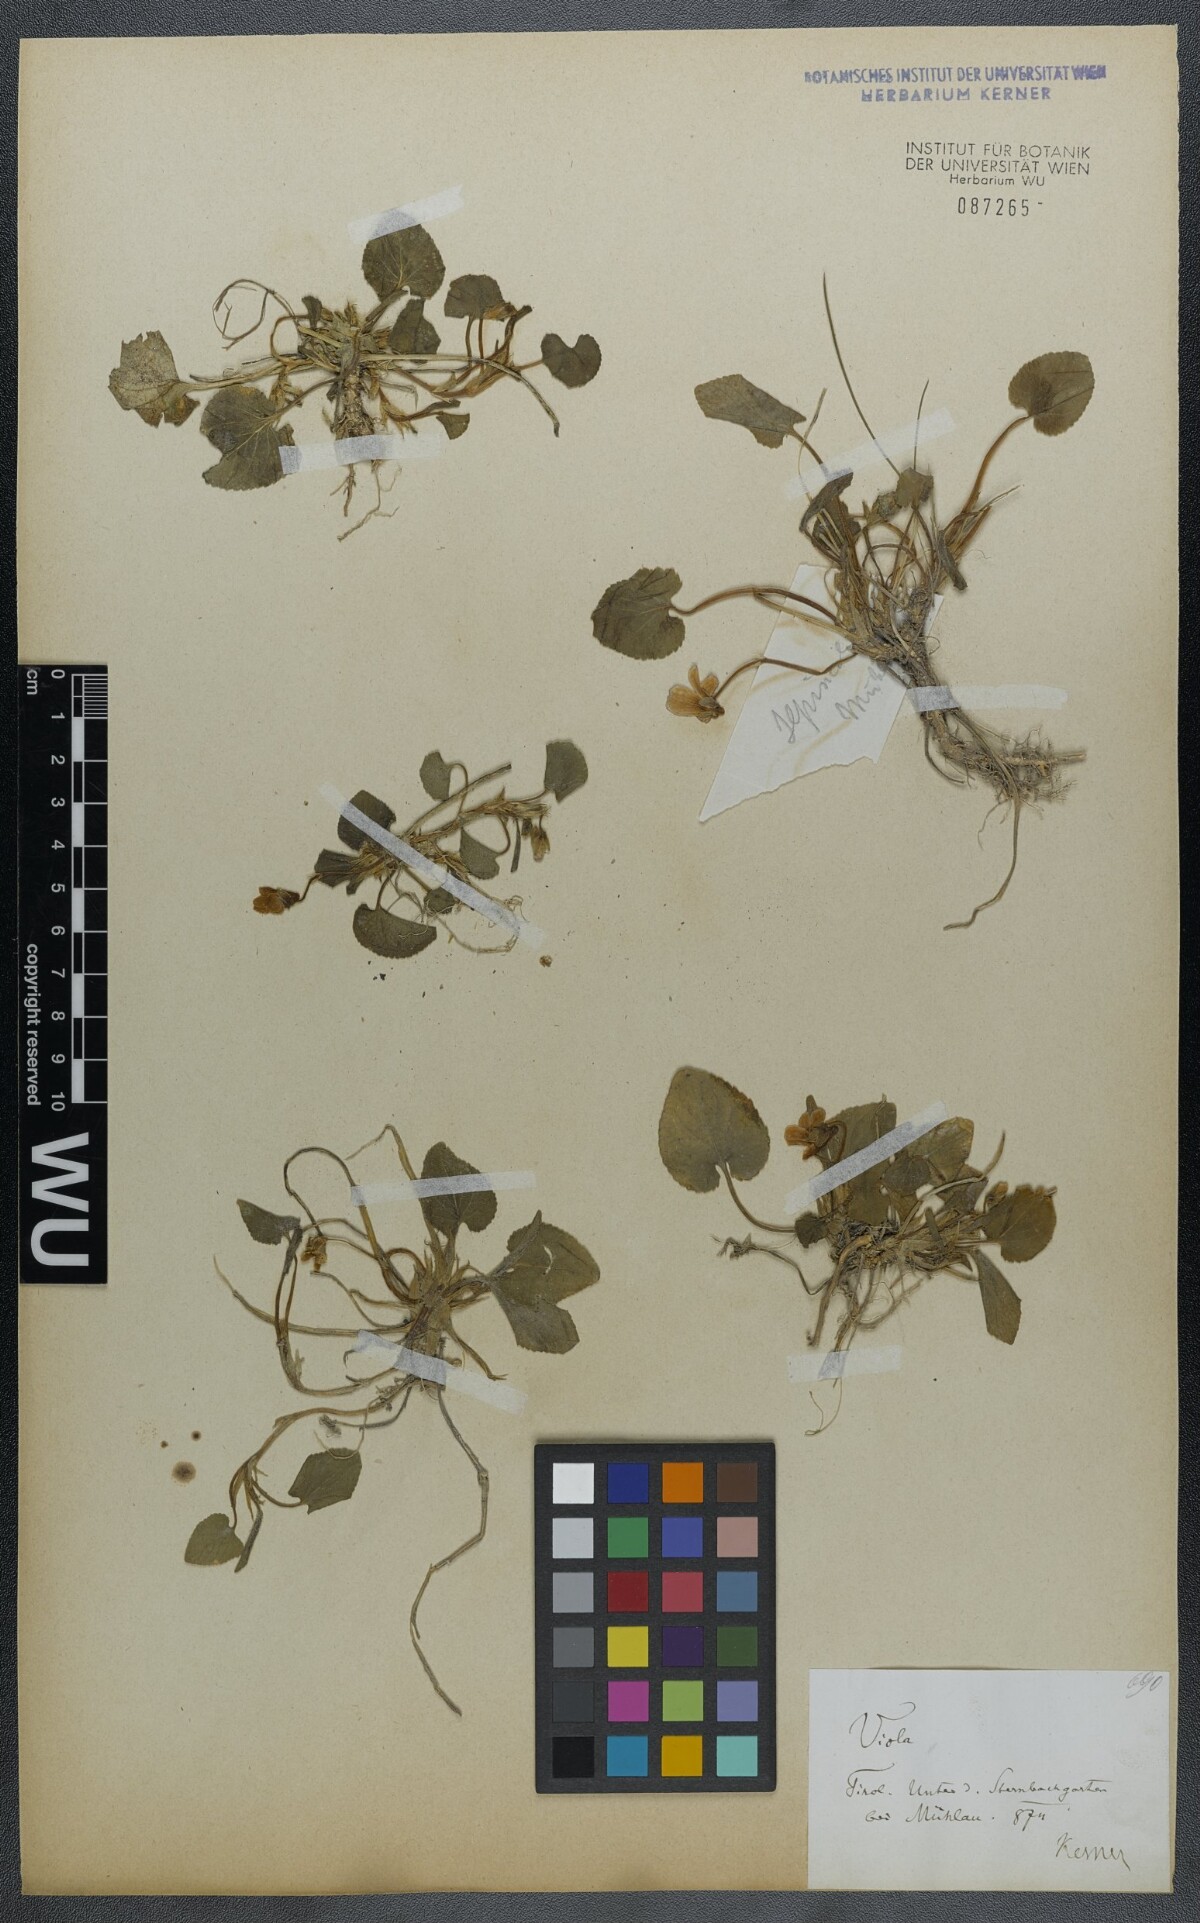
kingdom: Plantae
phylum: Tracheophyta
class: Magnoliopsida
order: Malpighiales
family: Violaceae
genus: Viola
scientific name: Viola suavis
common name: Russian violet
